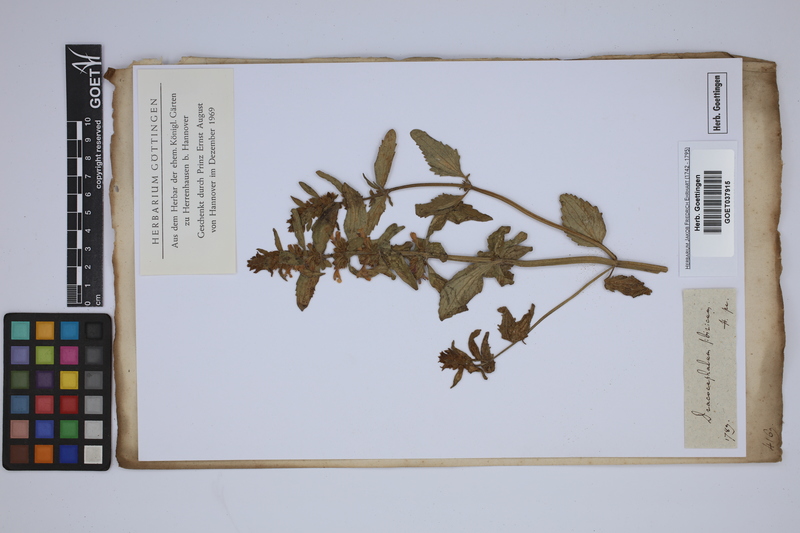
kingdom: Plantae
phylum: Tracheophyta
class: Magnoliopsida
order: Lamiales
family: Lamiaceae
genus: Dracocephalum
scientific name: Dracocephalum
